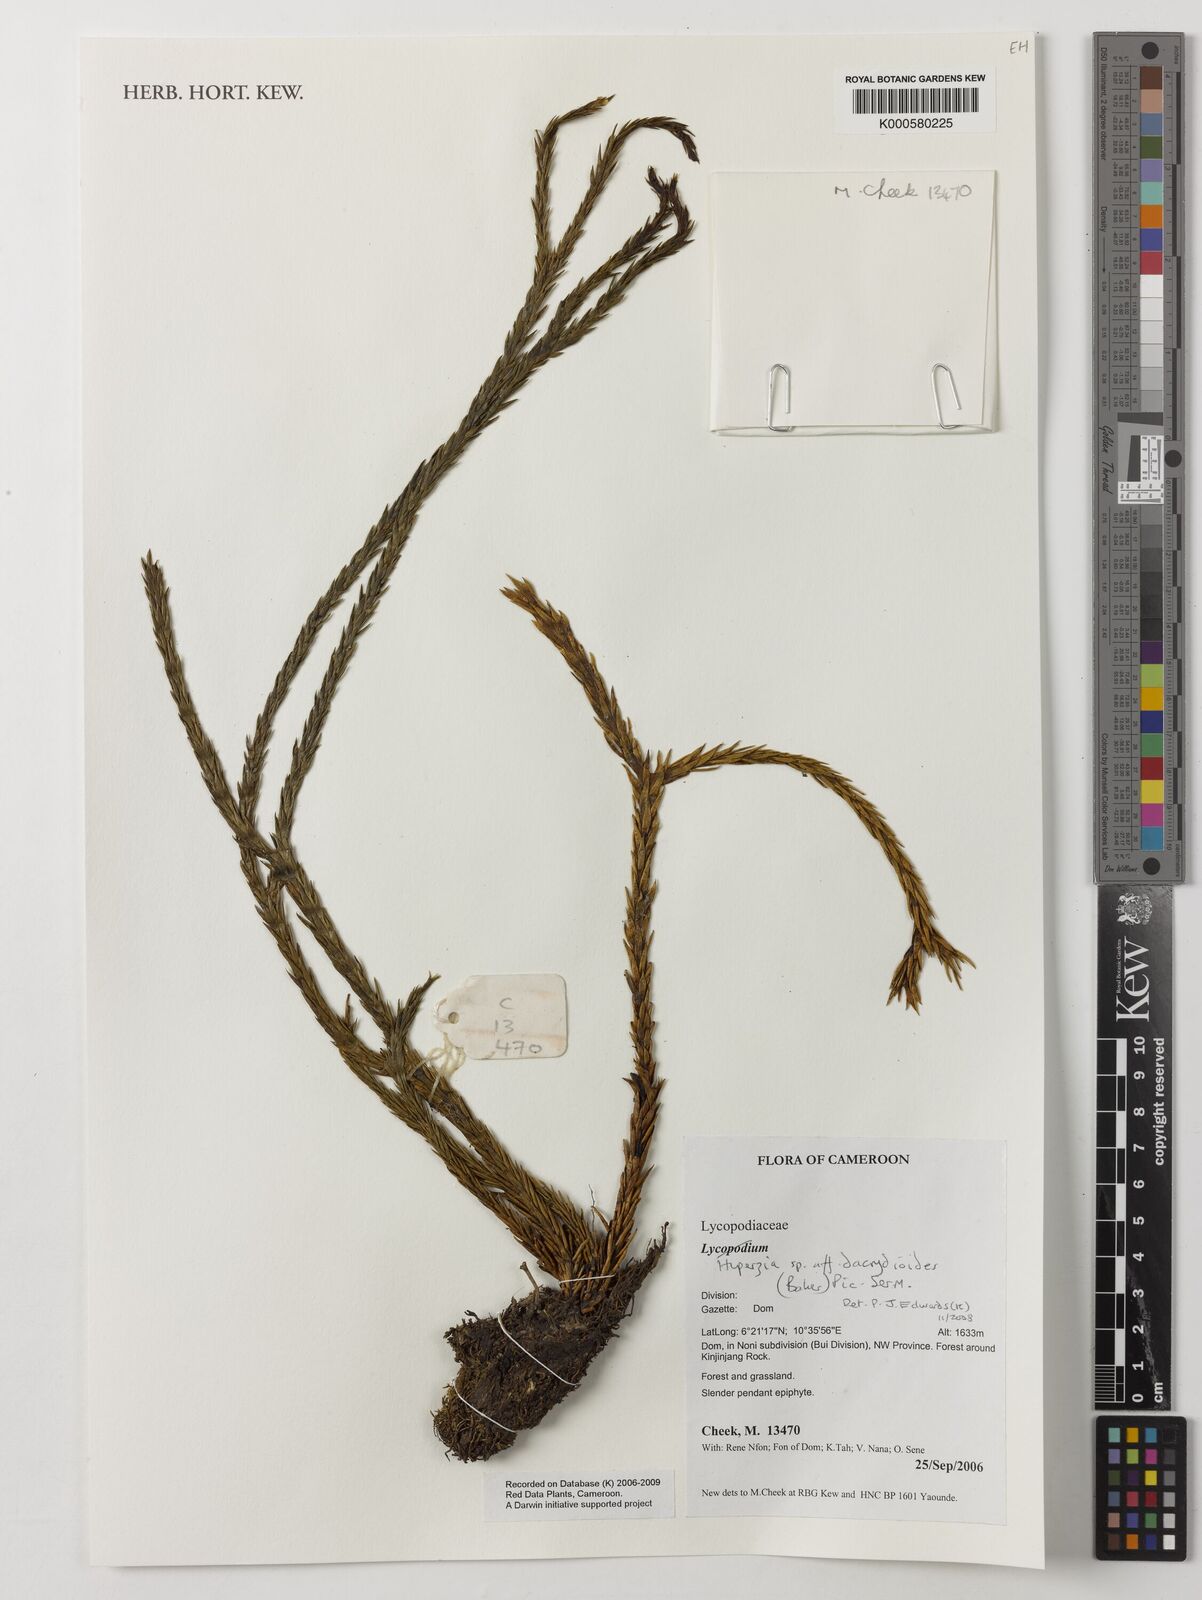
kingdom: Plantae
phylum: Tracheophyta
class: Lycopodiopsida
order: Lycopodiales
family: Lycopodiaceae
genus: Phlegmariurus
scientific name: Phlegmariurus dacrydioides
